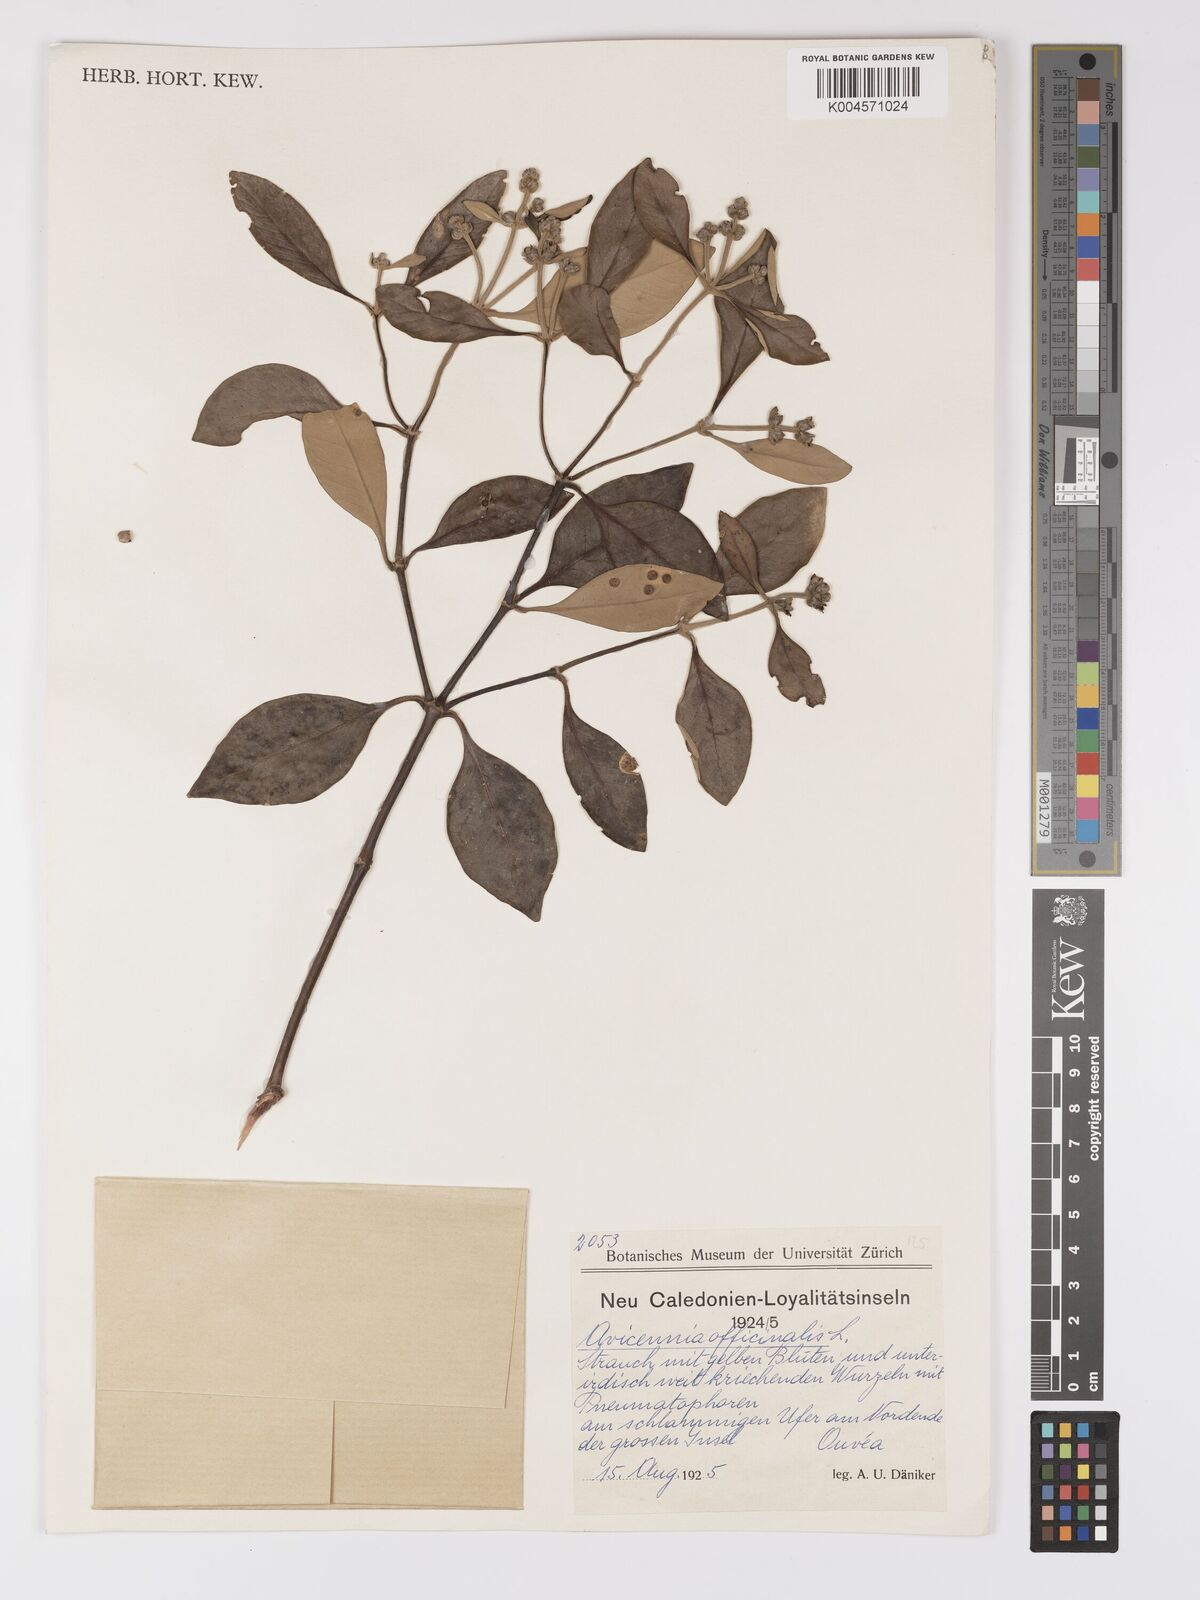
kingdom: Plantae
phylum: Tracheophyta
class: Magnoliopsida
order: Lamiales
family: Acanthaceae
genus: Avicennia
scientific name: Avicennia marina
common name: Gray mangrove
